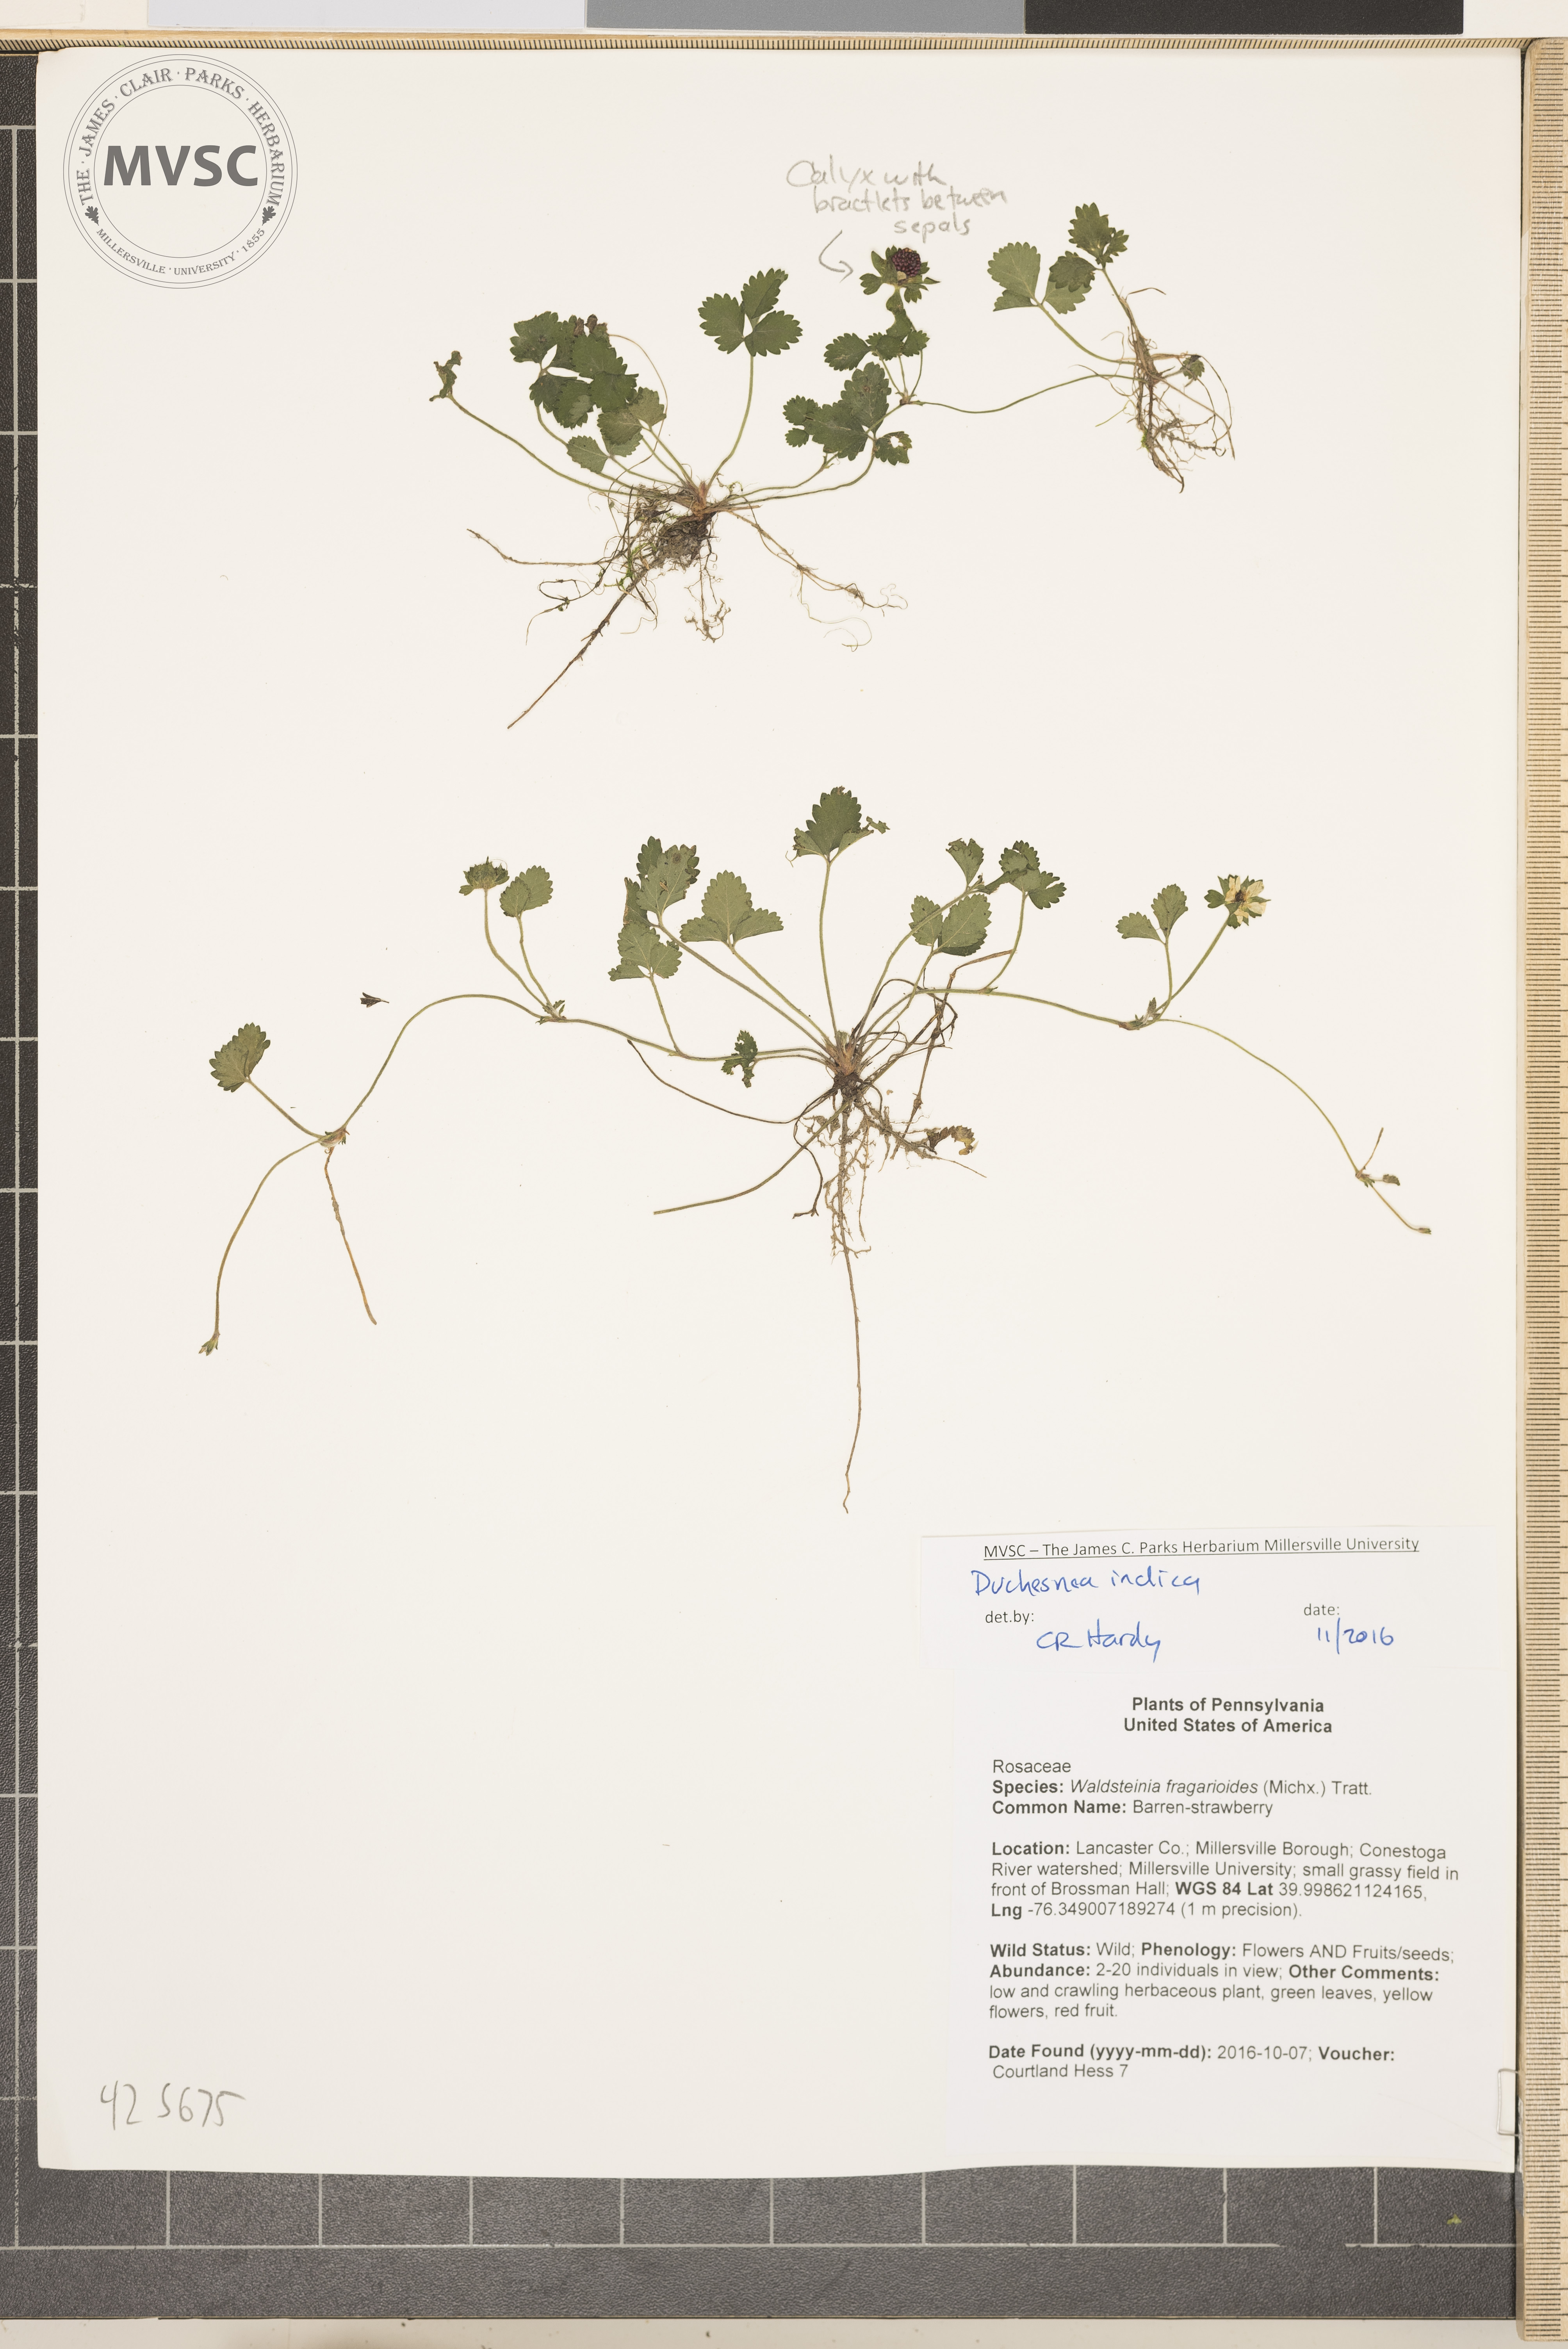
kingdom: Plantae
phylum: Tracheophyta
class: Magnoliopsida
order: Rosales
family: Rosaceae
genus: Potentilla
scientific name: Potentilla indica
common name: Yellow-flowered strawberry
